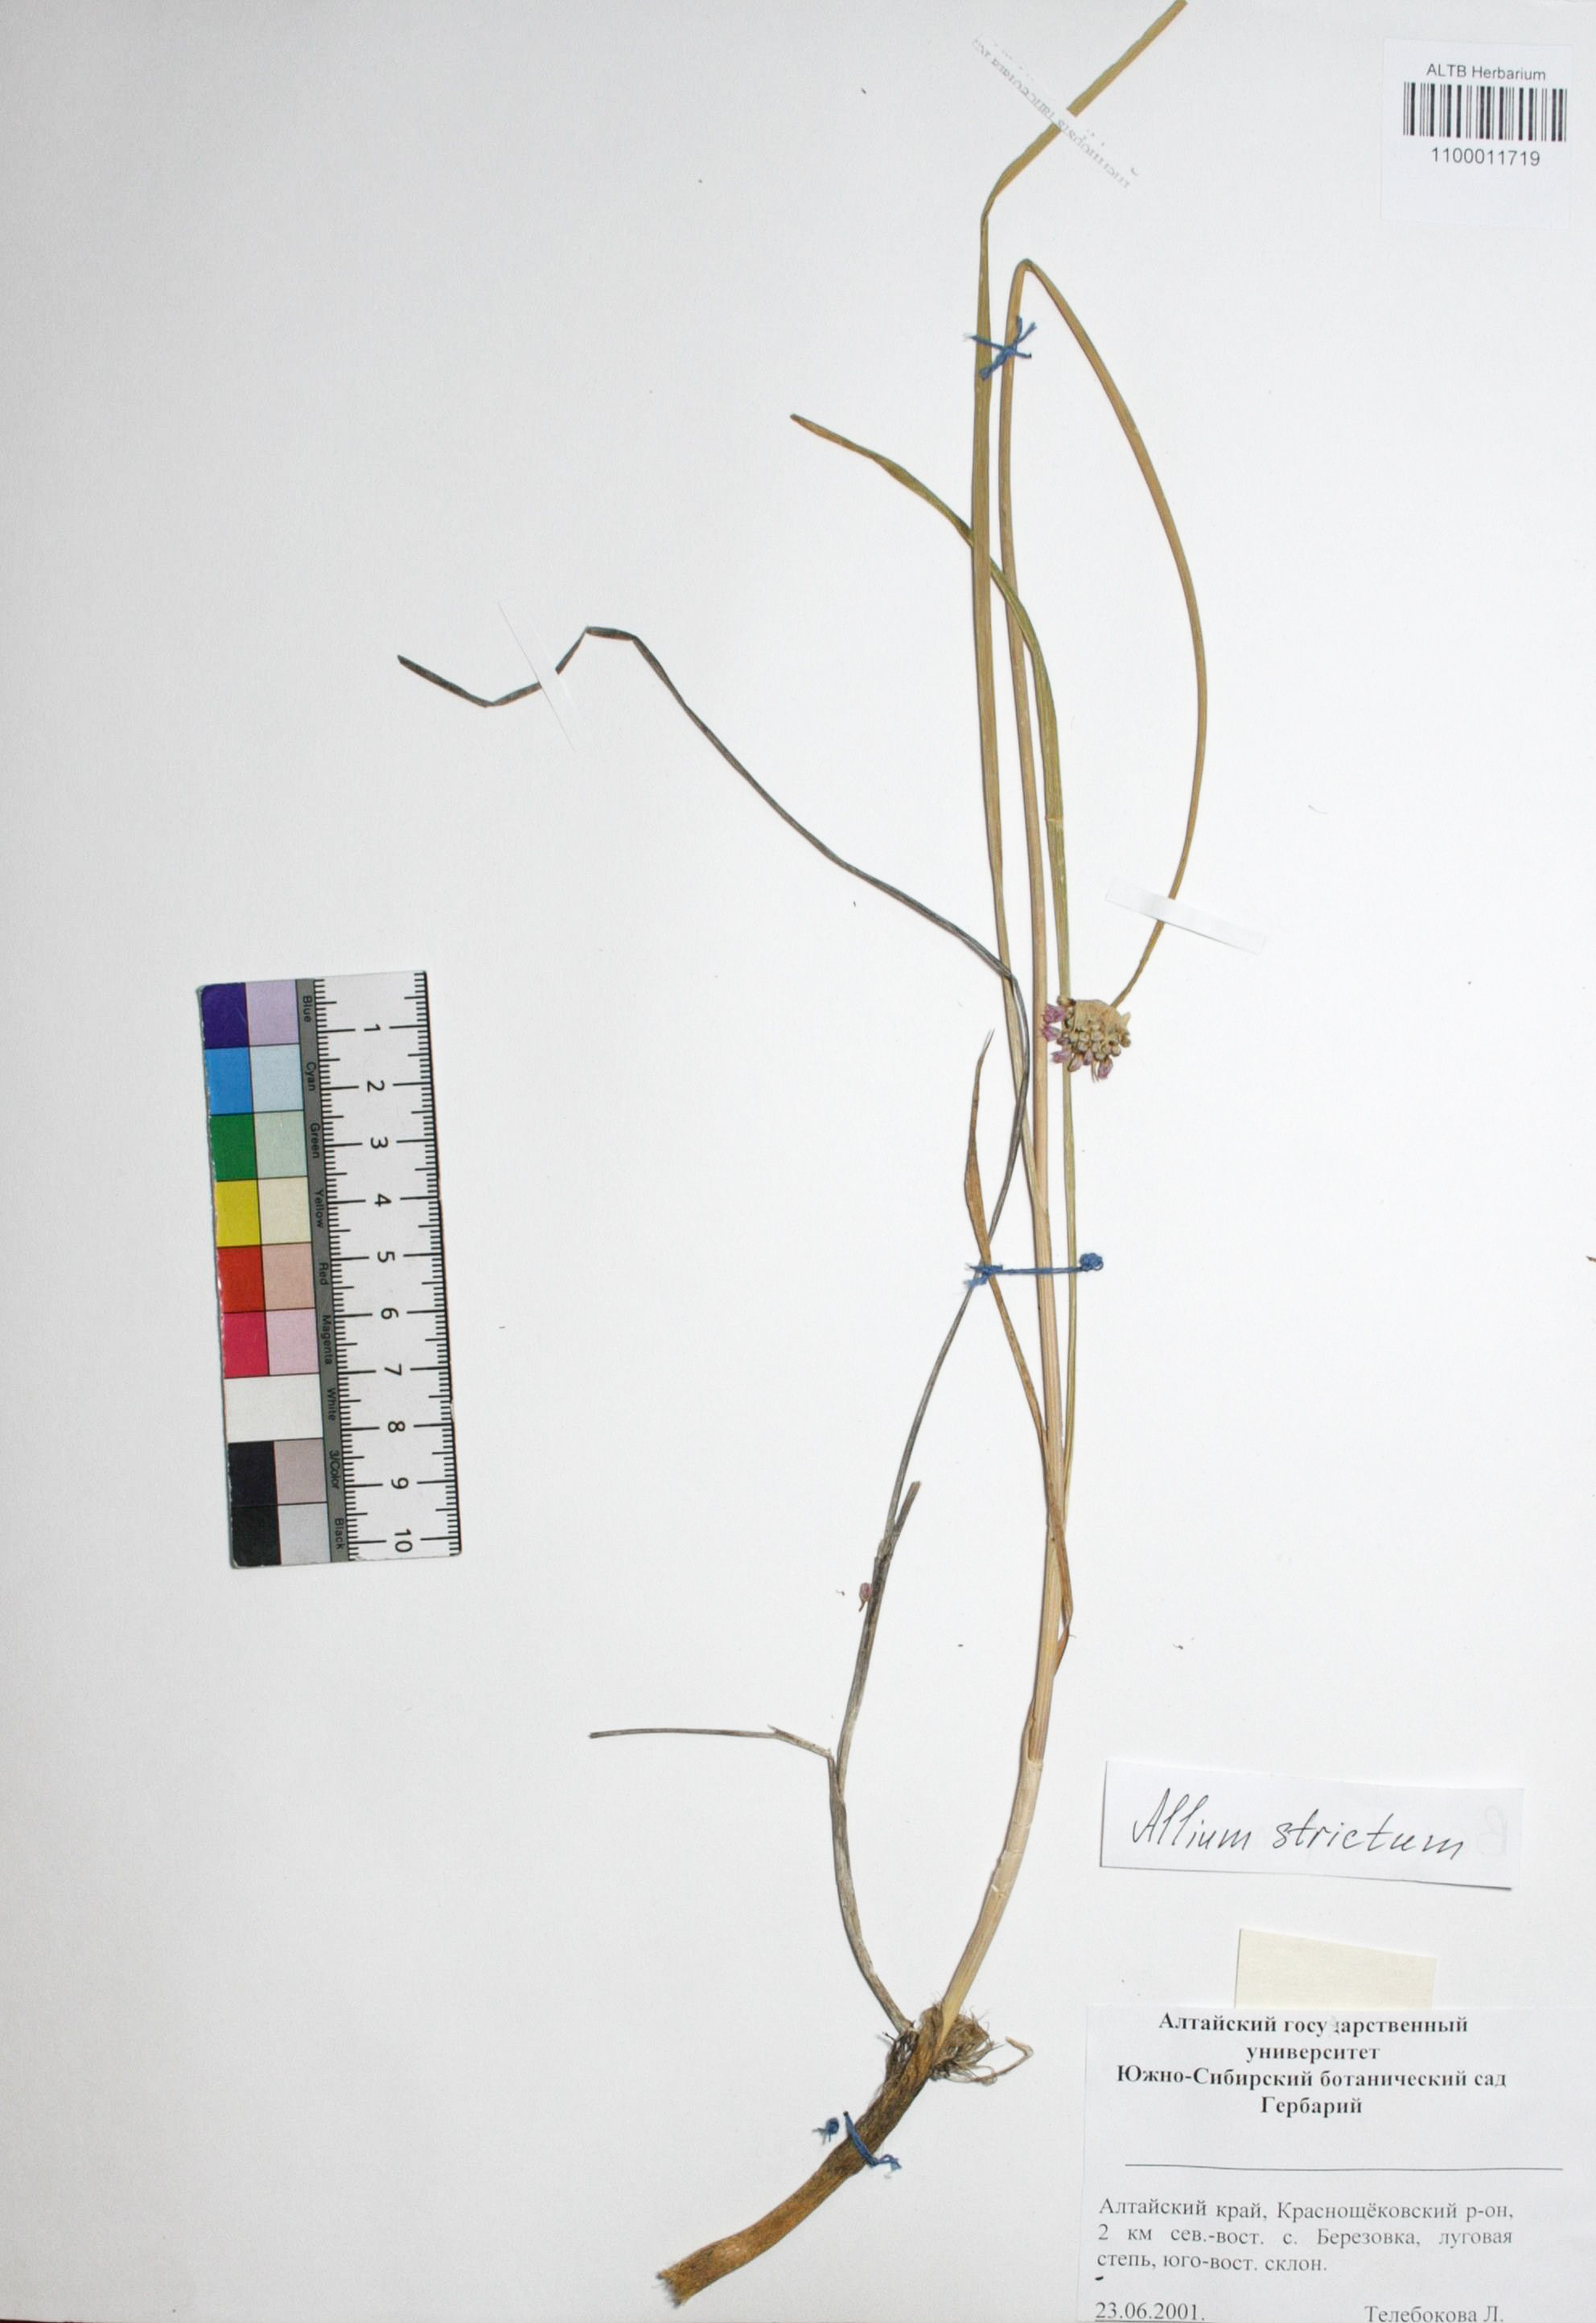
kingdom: Plantae
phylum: Tracheophyta
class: Liliopsida
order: Asparagales
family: Amaryllidaceae
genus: Allium
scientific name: Allium strictum
